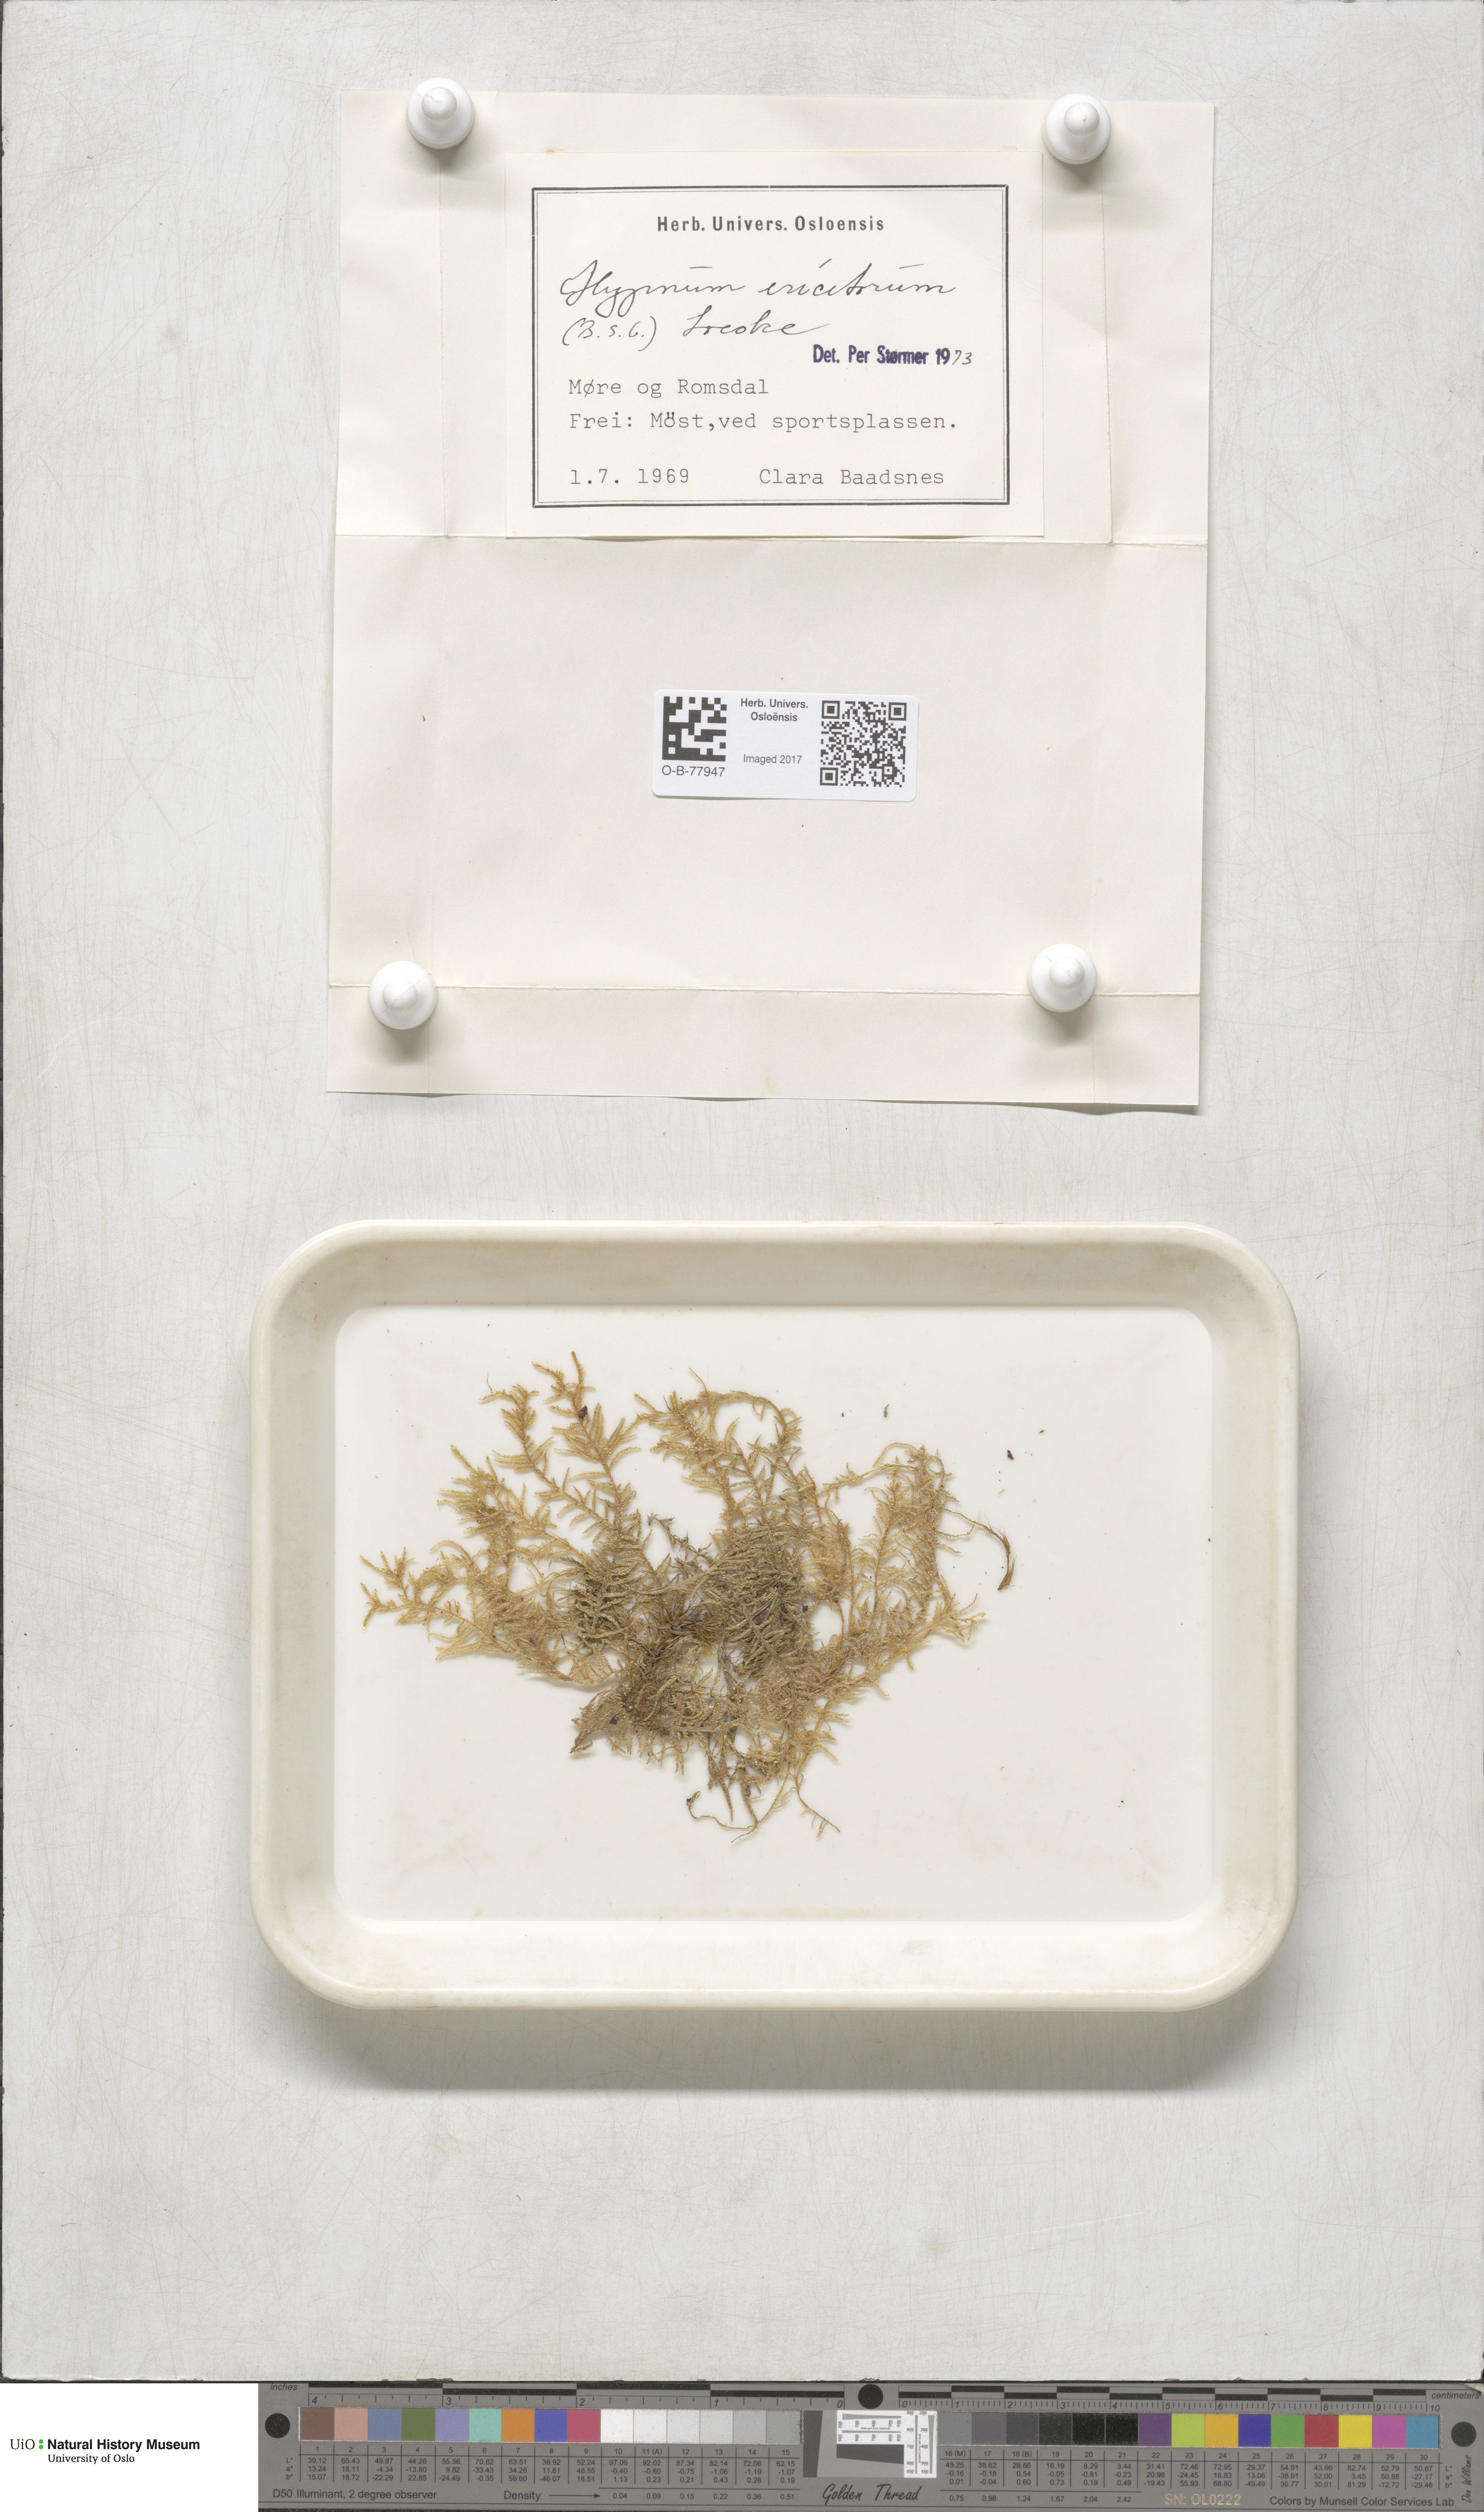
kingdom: Plantae
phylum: Bryophyta
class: Bryopsida
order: Hypnales
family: Hypnaceae
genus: Hypnum
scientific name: Hypnum jutlandicum
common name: Heath plait-moss
